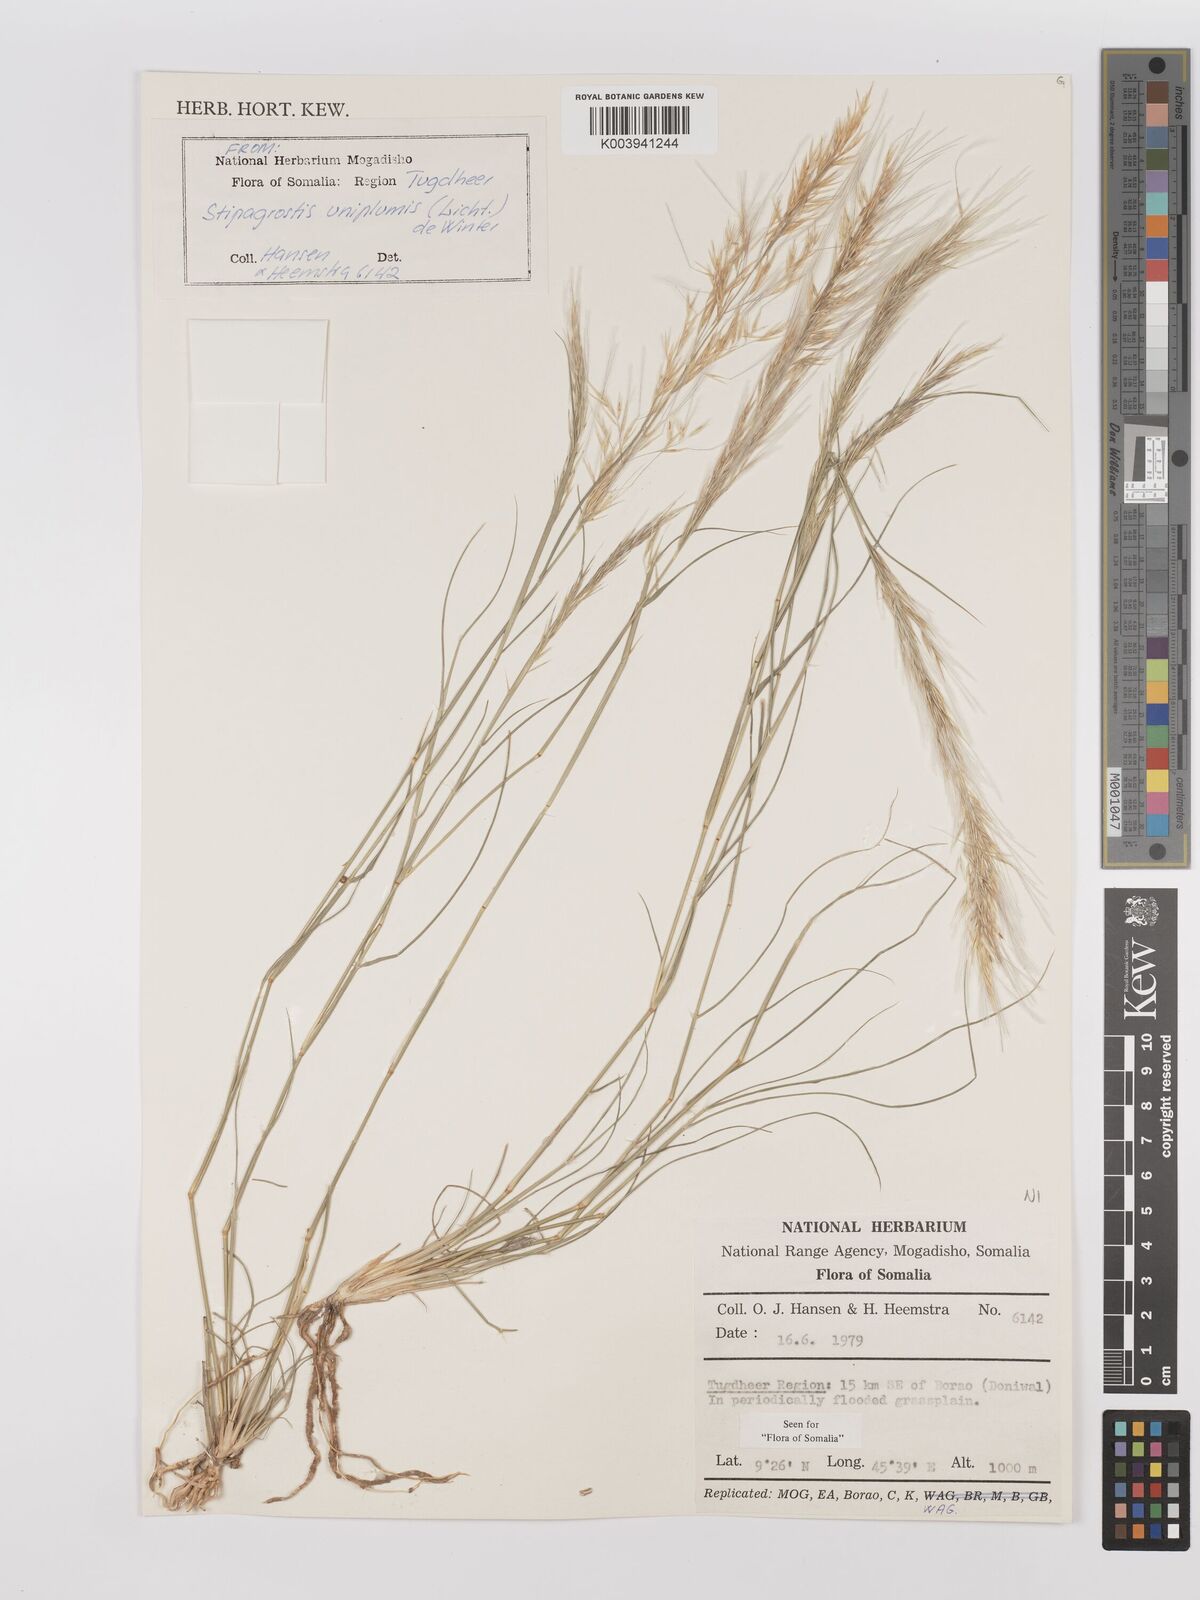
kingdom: Plantae
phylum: Tracheophyta
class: Liliopsida
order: Poales
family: Poaceae
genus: Stipagrostis
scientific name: Stipagrostis uniplumis
